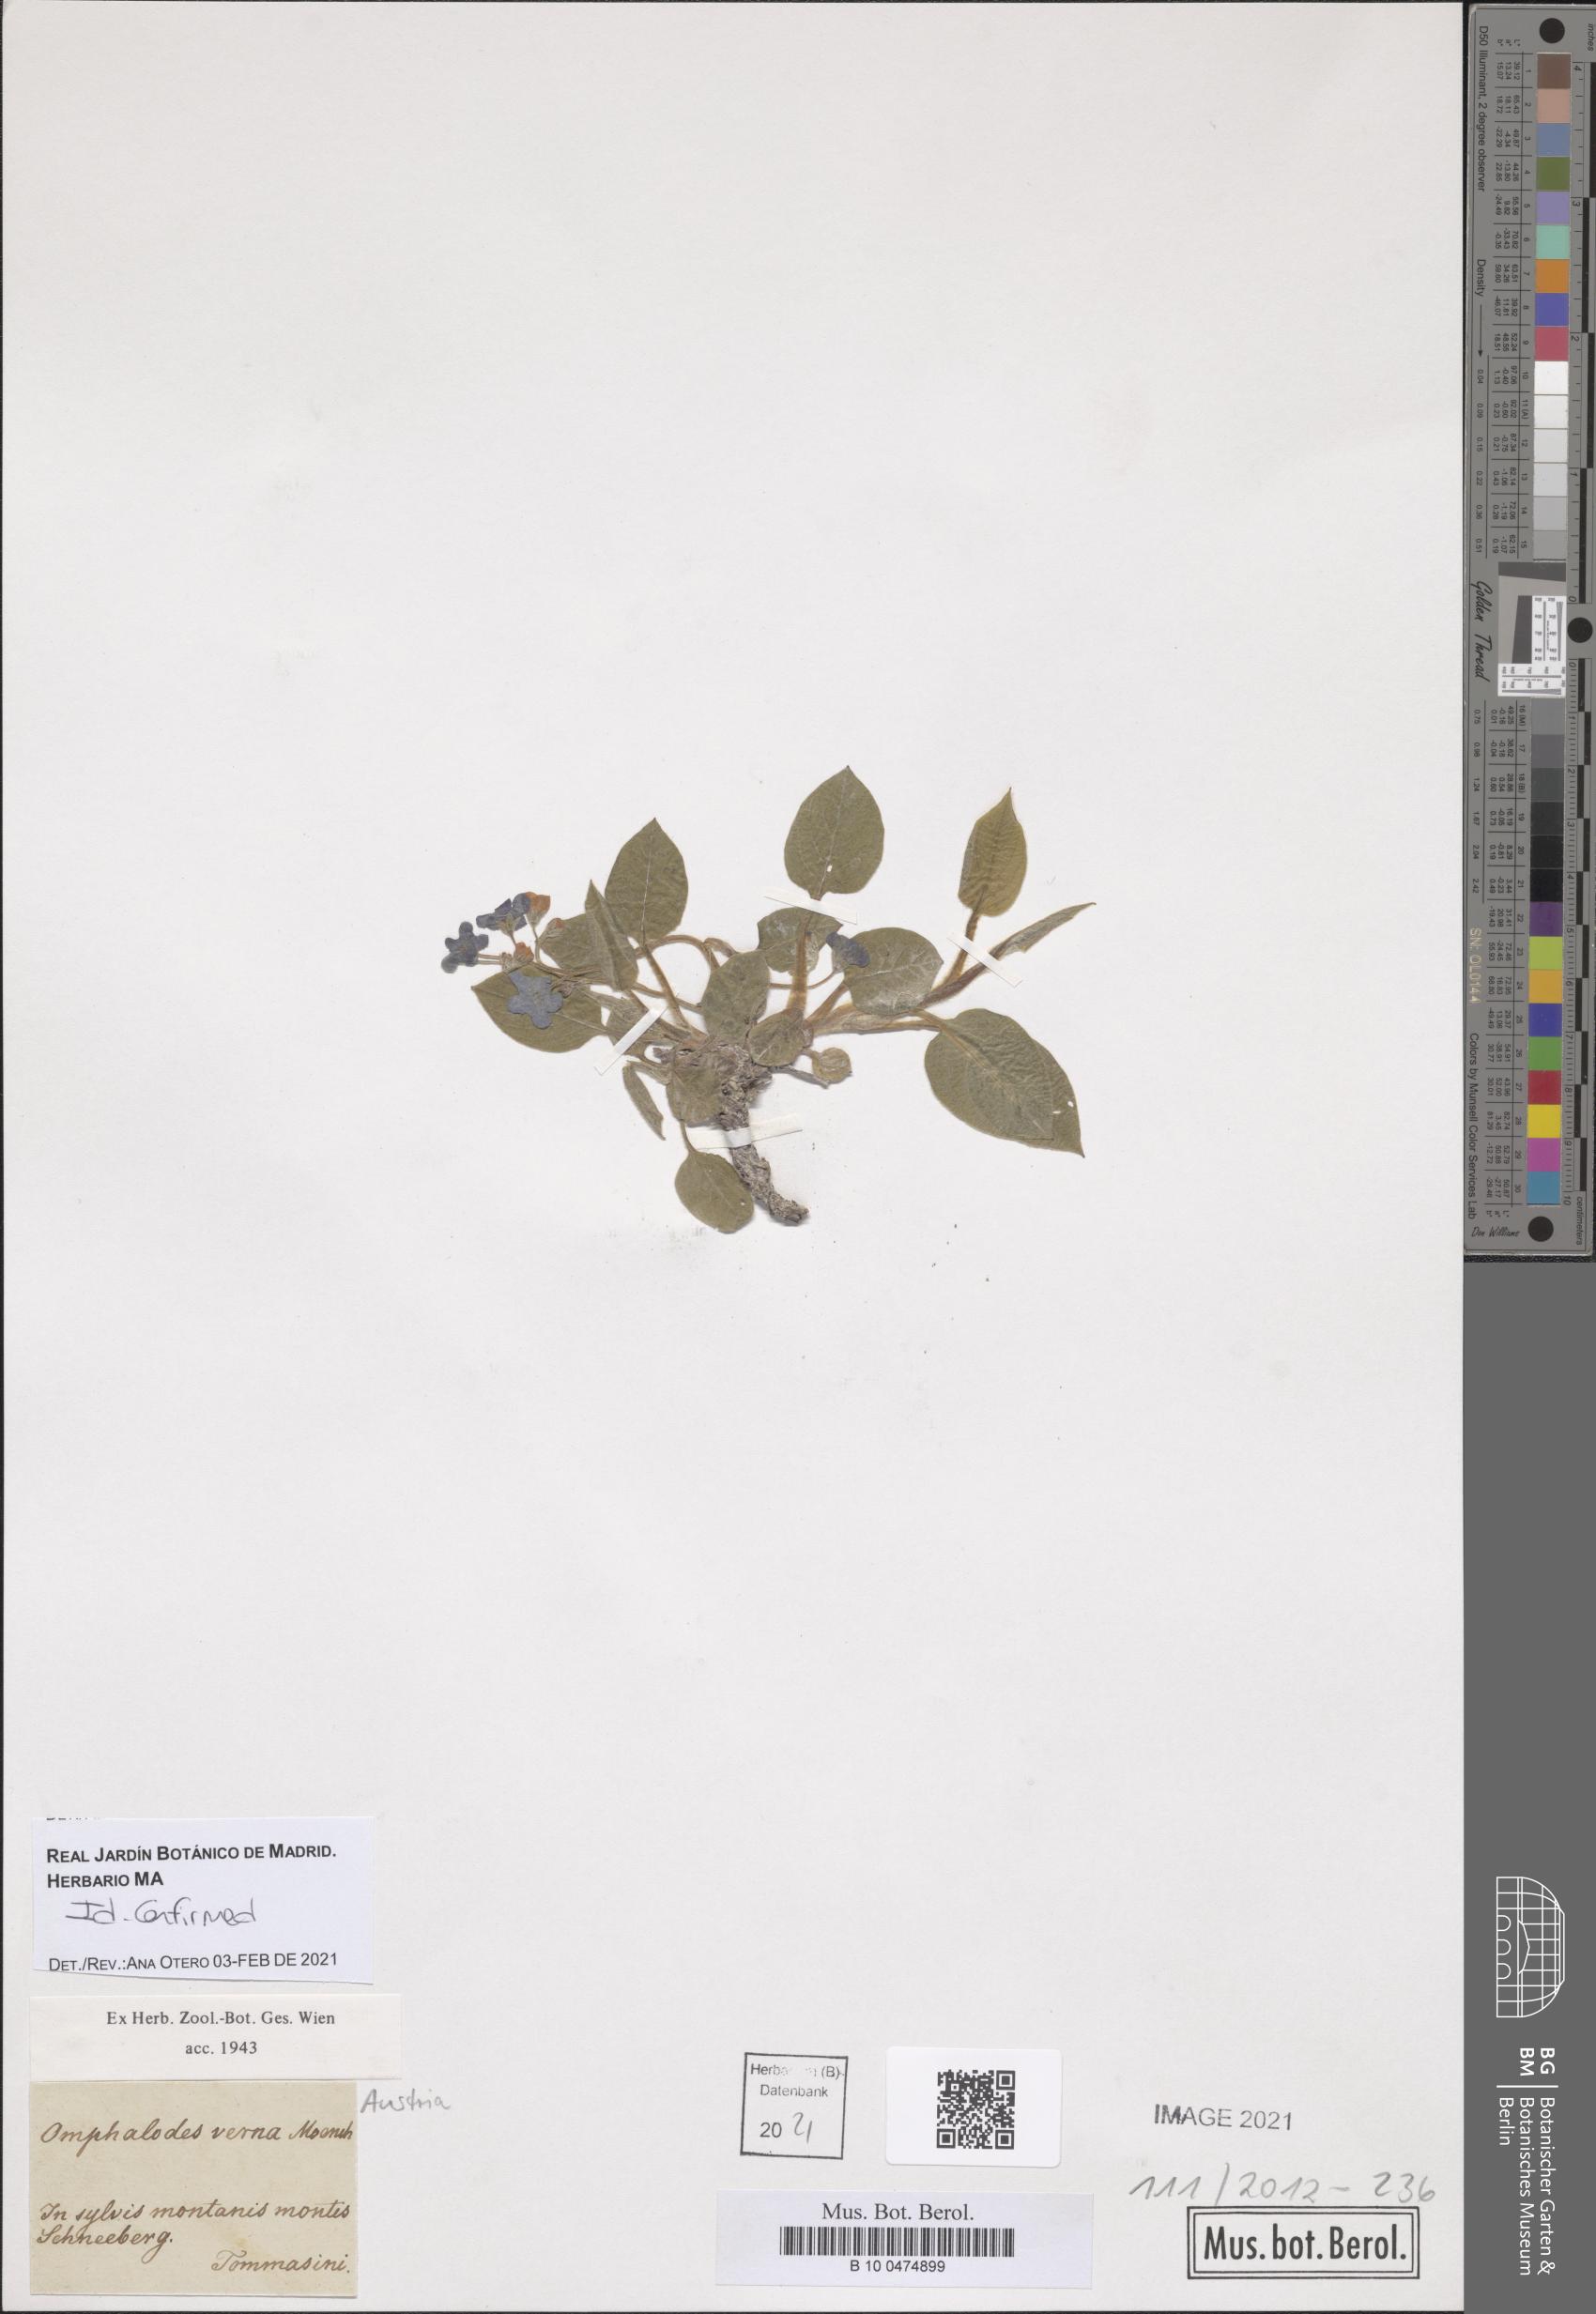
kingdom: Plantae
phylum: Tracheophyta
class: Magnoliopsida
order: Boraginales
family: Boraginaceae
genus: Omphalodes
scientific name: Omphalodes verna
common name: Blue-eyed-mary
